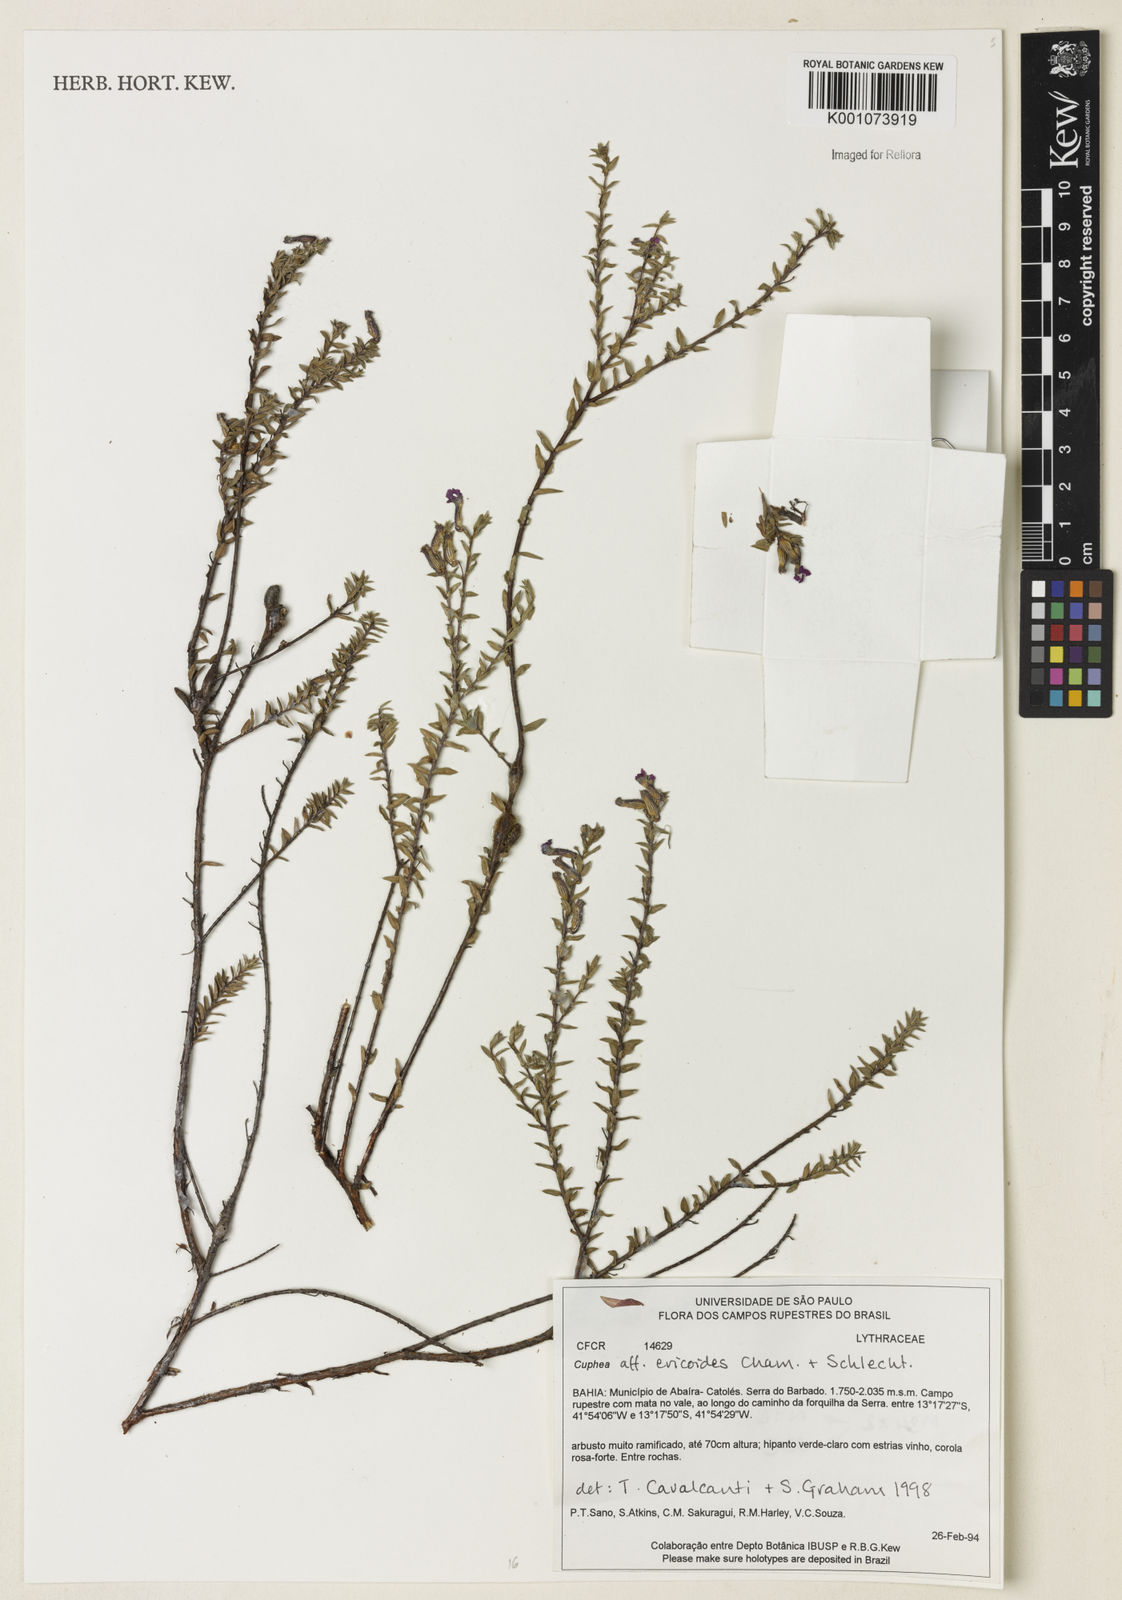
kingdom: Plantae
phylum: Tracheophyta
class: Magnoliopsida
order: Myrtales
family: Lythraceae
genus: Cuphea
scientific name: Cuphea ericoides
